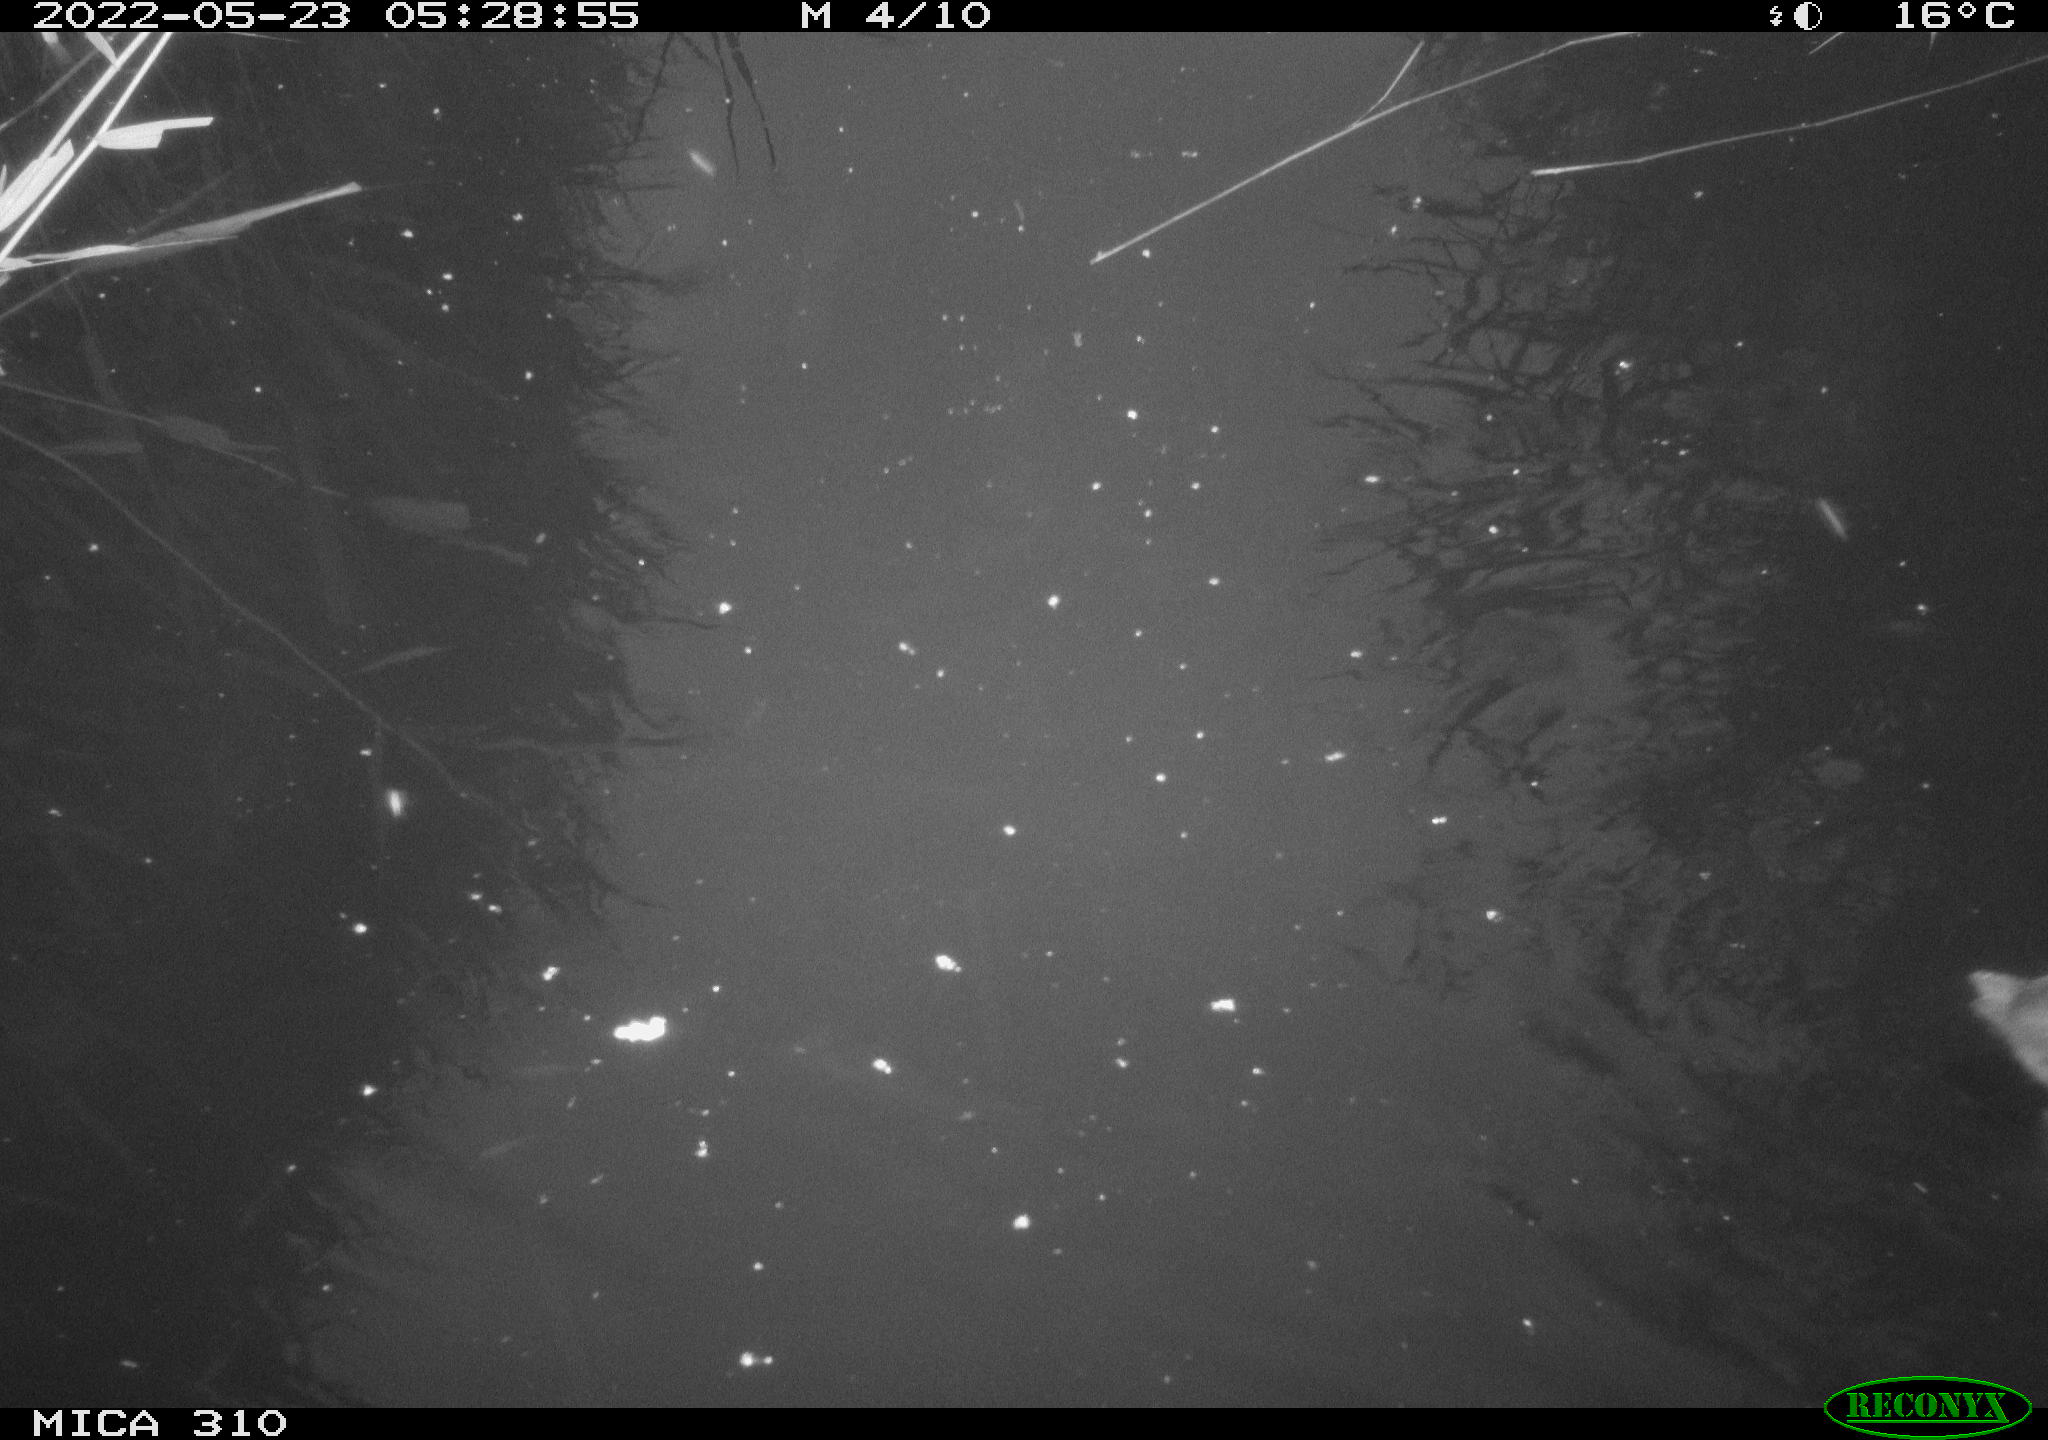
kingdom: Animalia
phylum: Chordata
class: Aves
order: Gruiformes
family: Rallidae
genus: Fulica
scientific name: Fulica atra
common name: Eurasian coot
